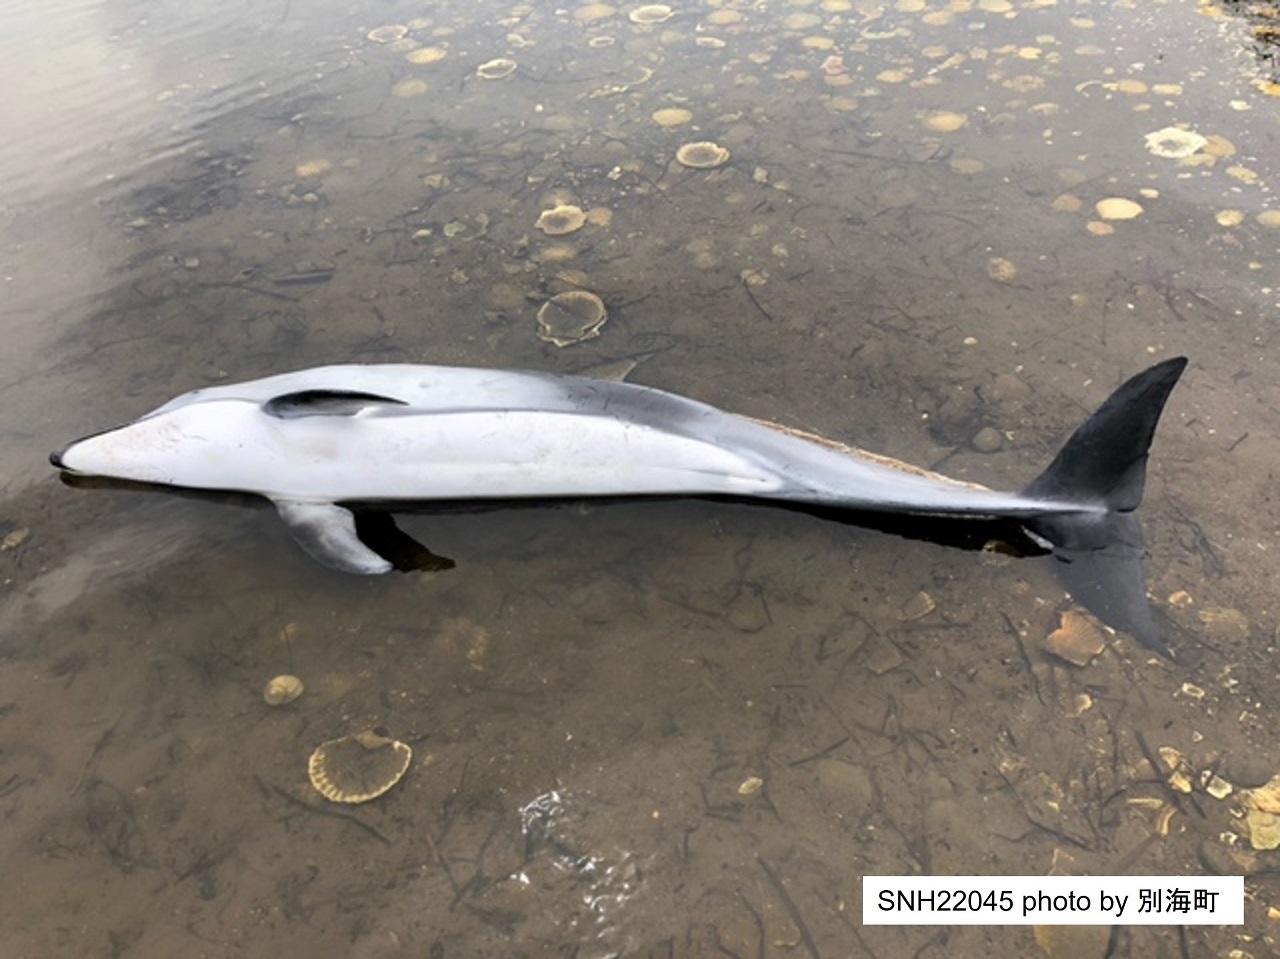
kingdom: Animalia
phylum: Chordata
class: Mammalia
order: Cetacea
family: Delphinidae
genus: Lagenorhynchus
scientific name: Lagenorhynchus obliquidens
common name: Pacific white-sided dolphin
